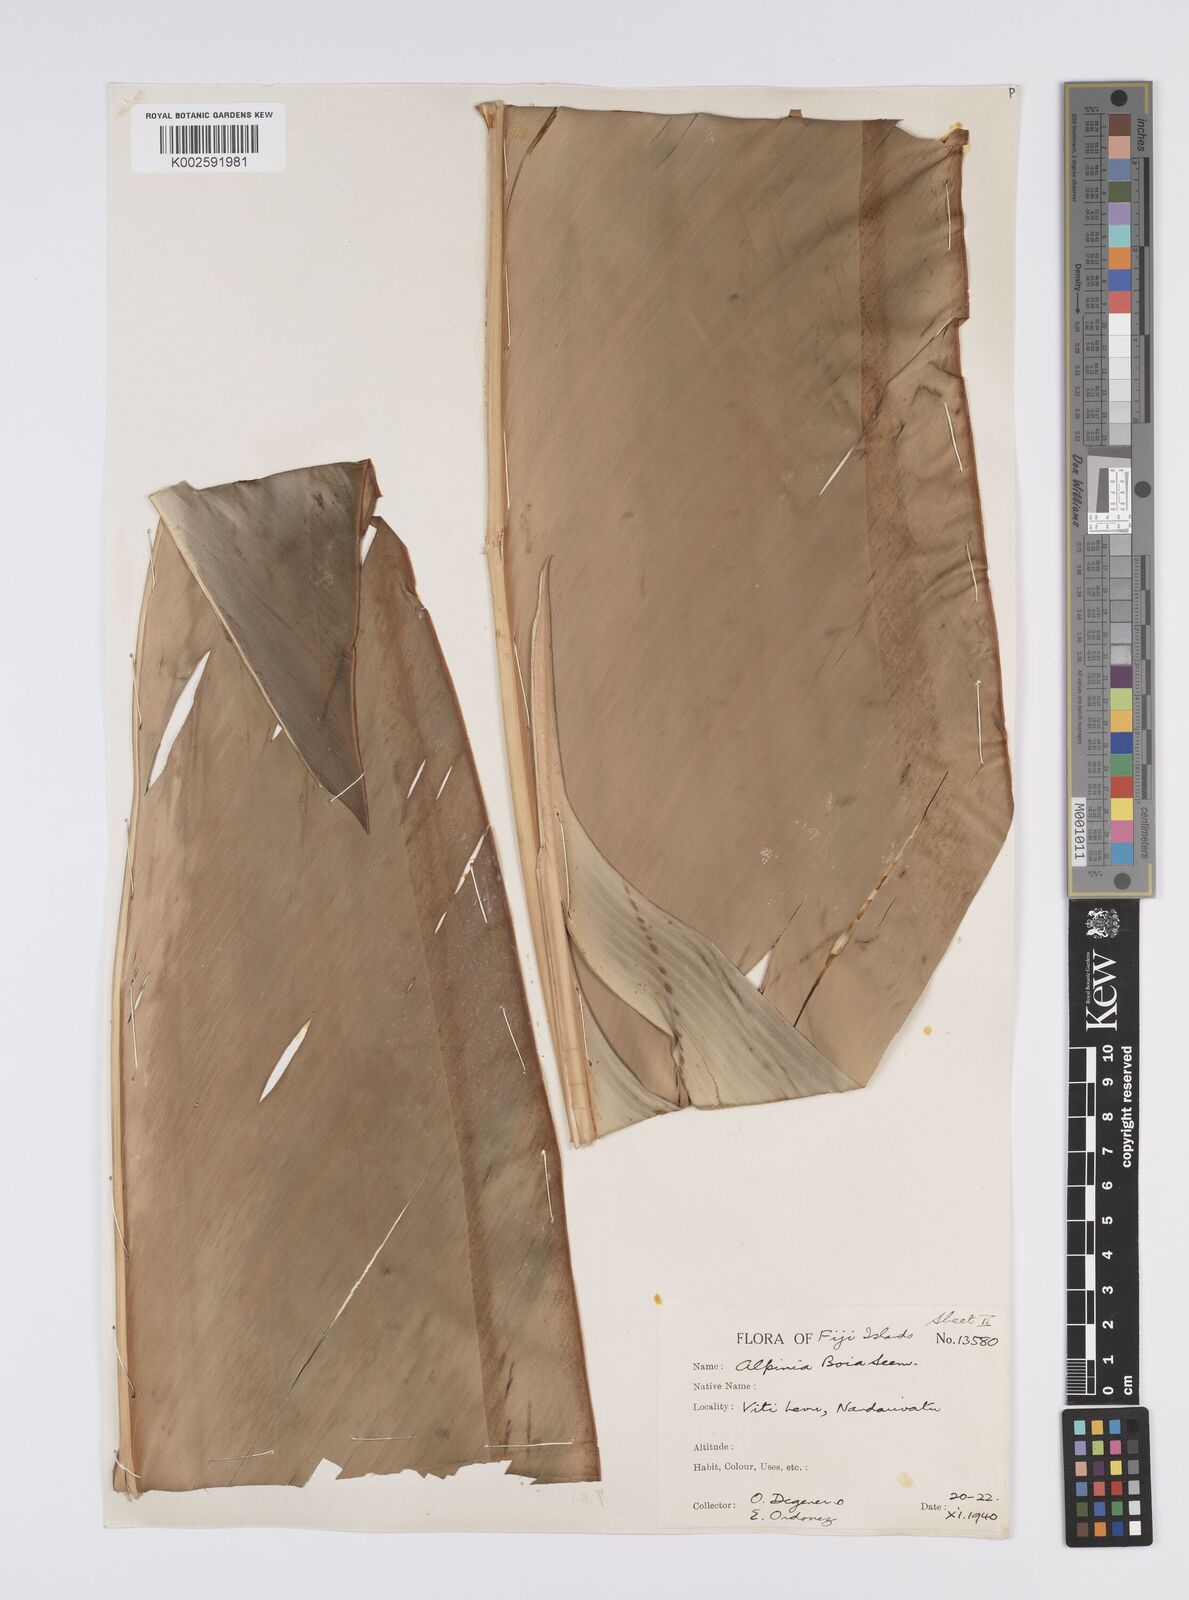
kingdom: Plantae
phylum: Tracheophyta
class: Liliopsida
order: Zingiberales
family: Zingiberaceae
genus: Alpinia
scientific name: Alpinia boia
